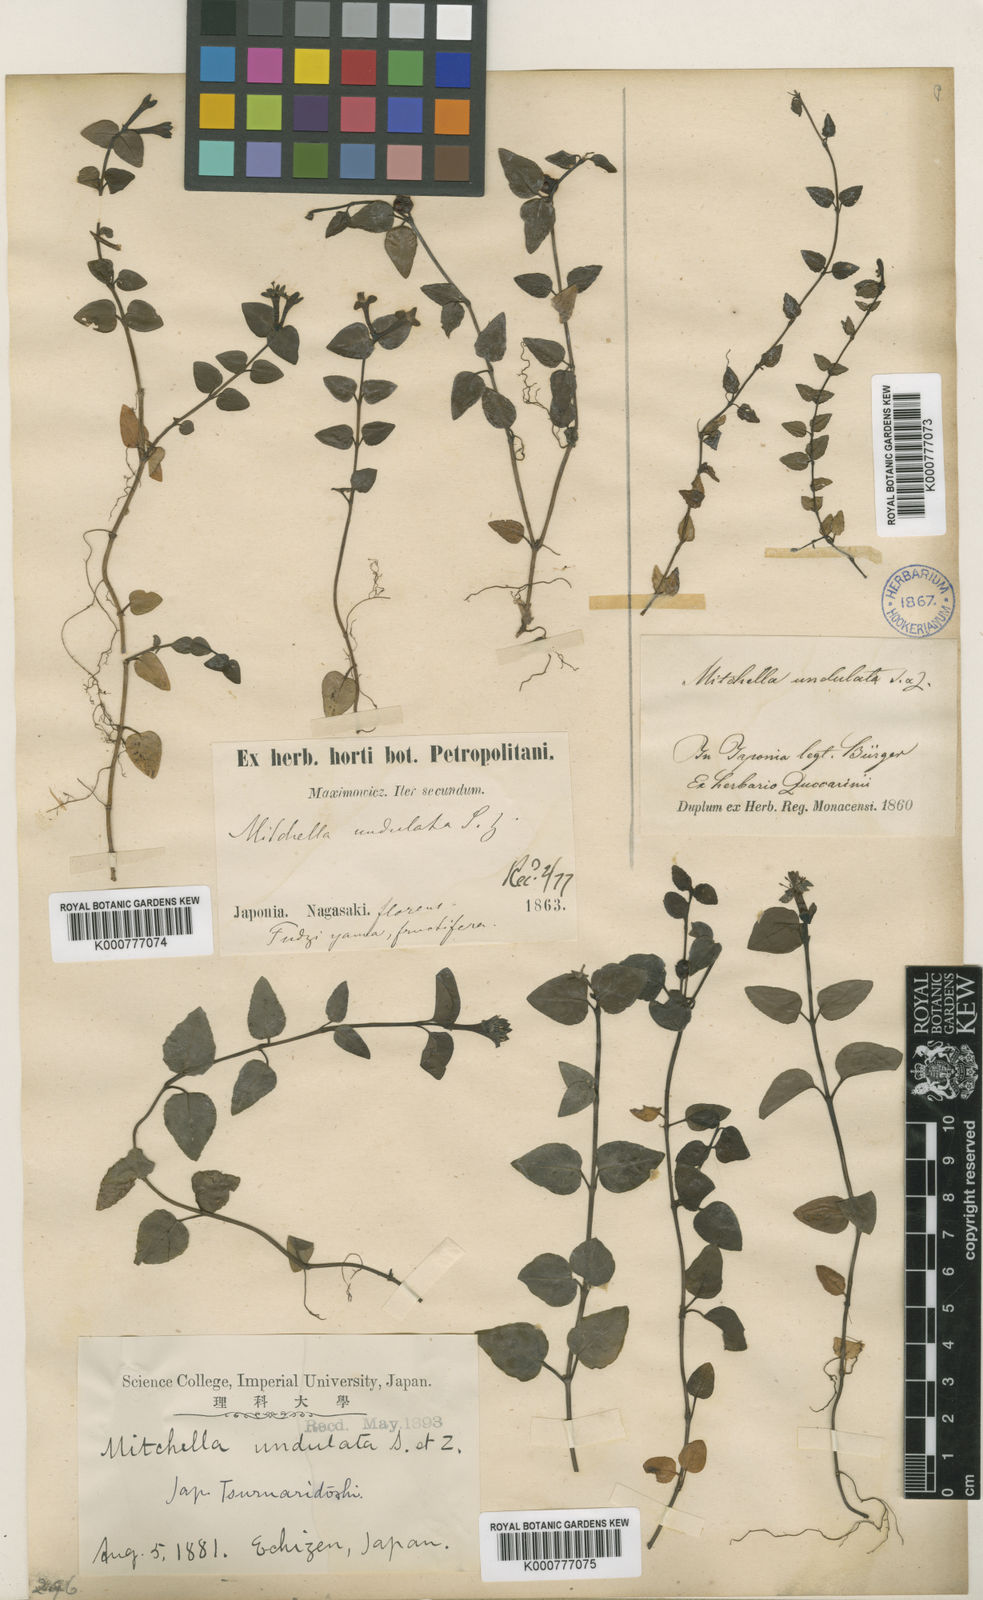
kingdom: Plantae
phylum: Tracheophyta
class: Magnoliopsida
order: Gentianales
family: Rubiaceae
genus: Damnacanthus
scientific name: Damnacanthus
